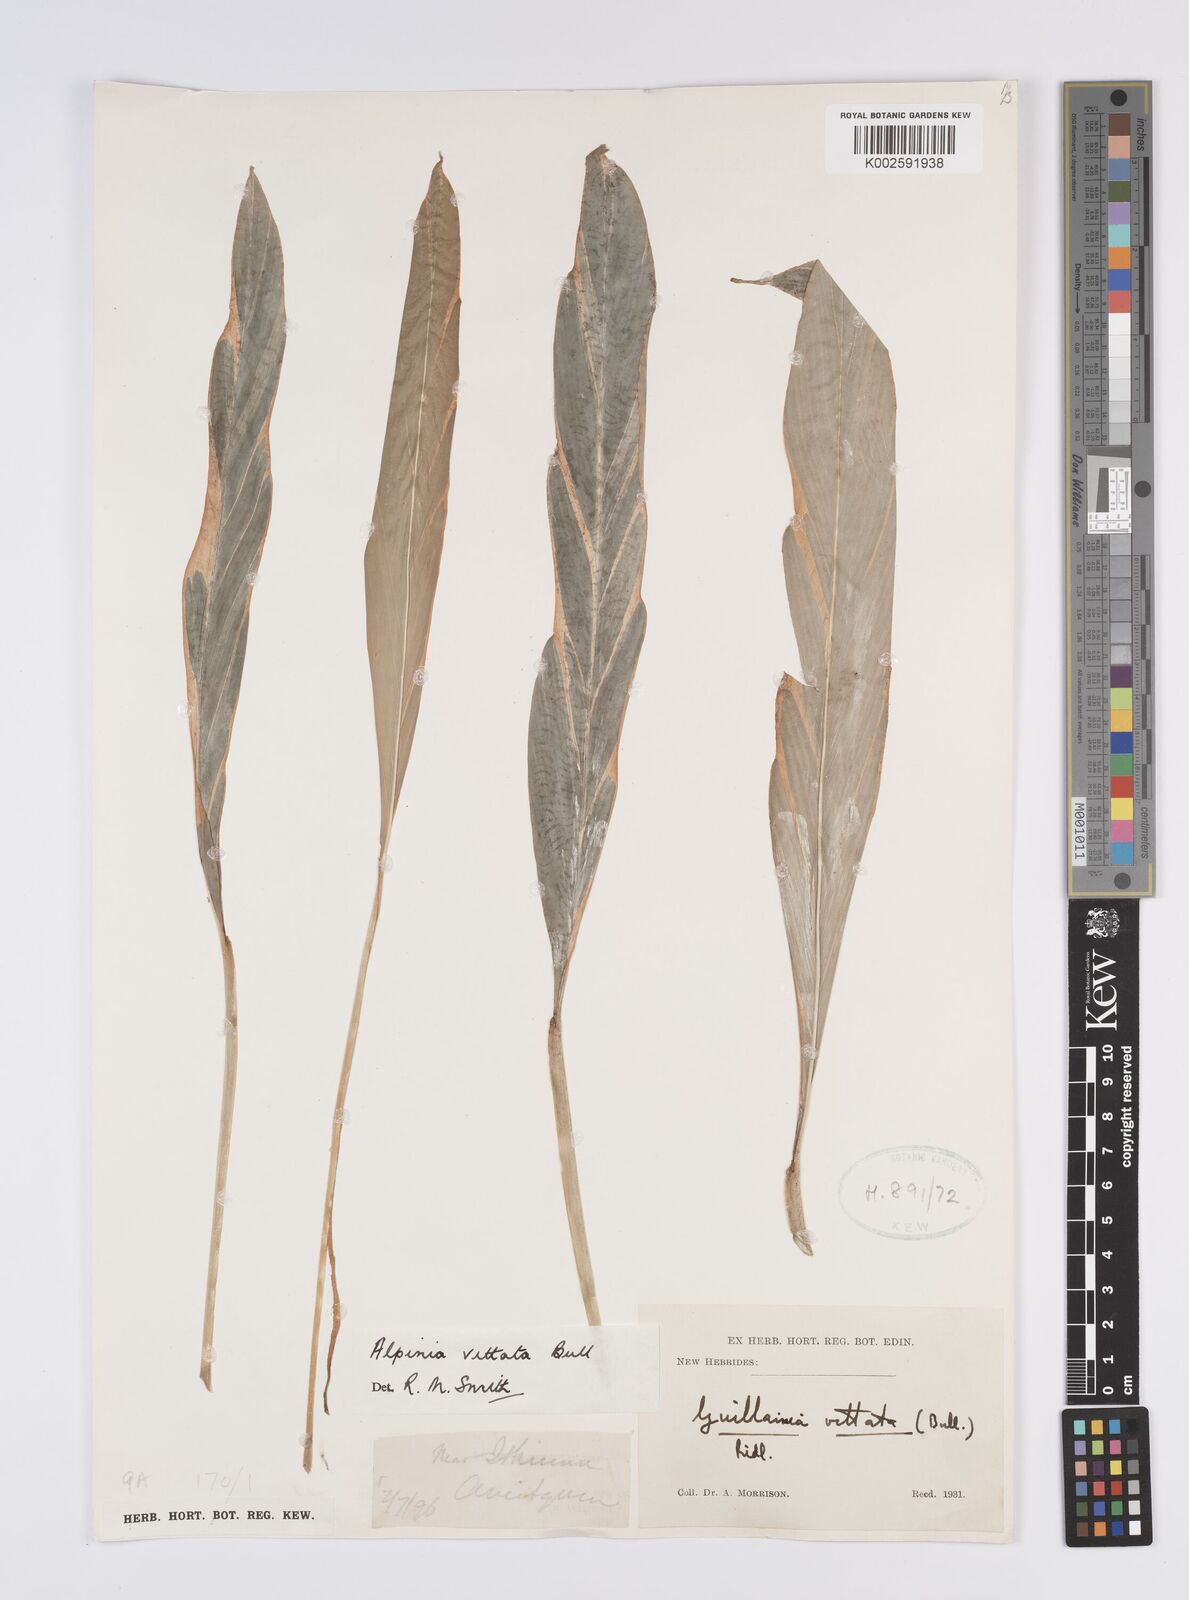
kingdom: Plantae
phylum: Tracheophyta
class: Liliopsida
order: Zingiberales
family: Zingiberaceae
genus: Alpinia
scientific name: Alpinia vittata
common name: Variegate-ginger
